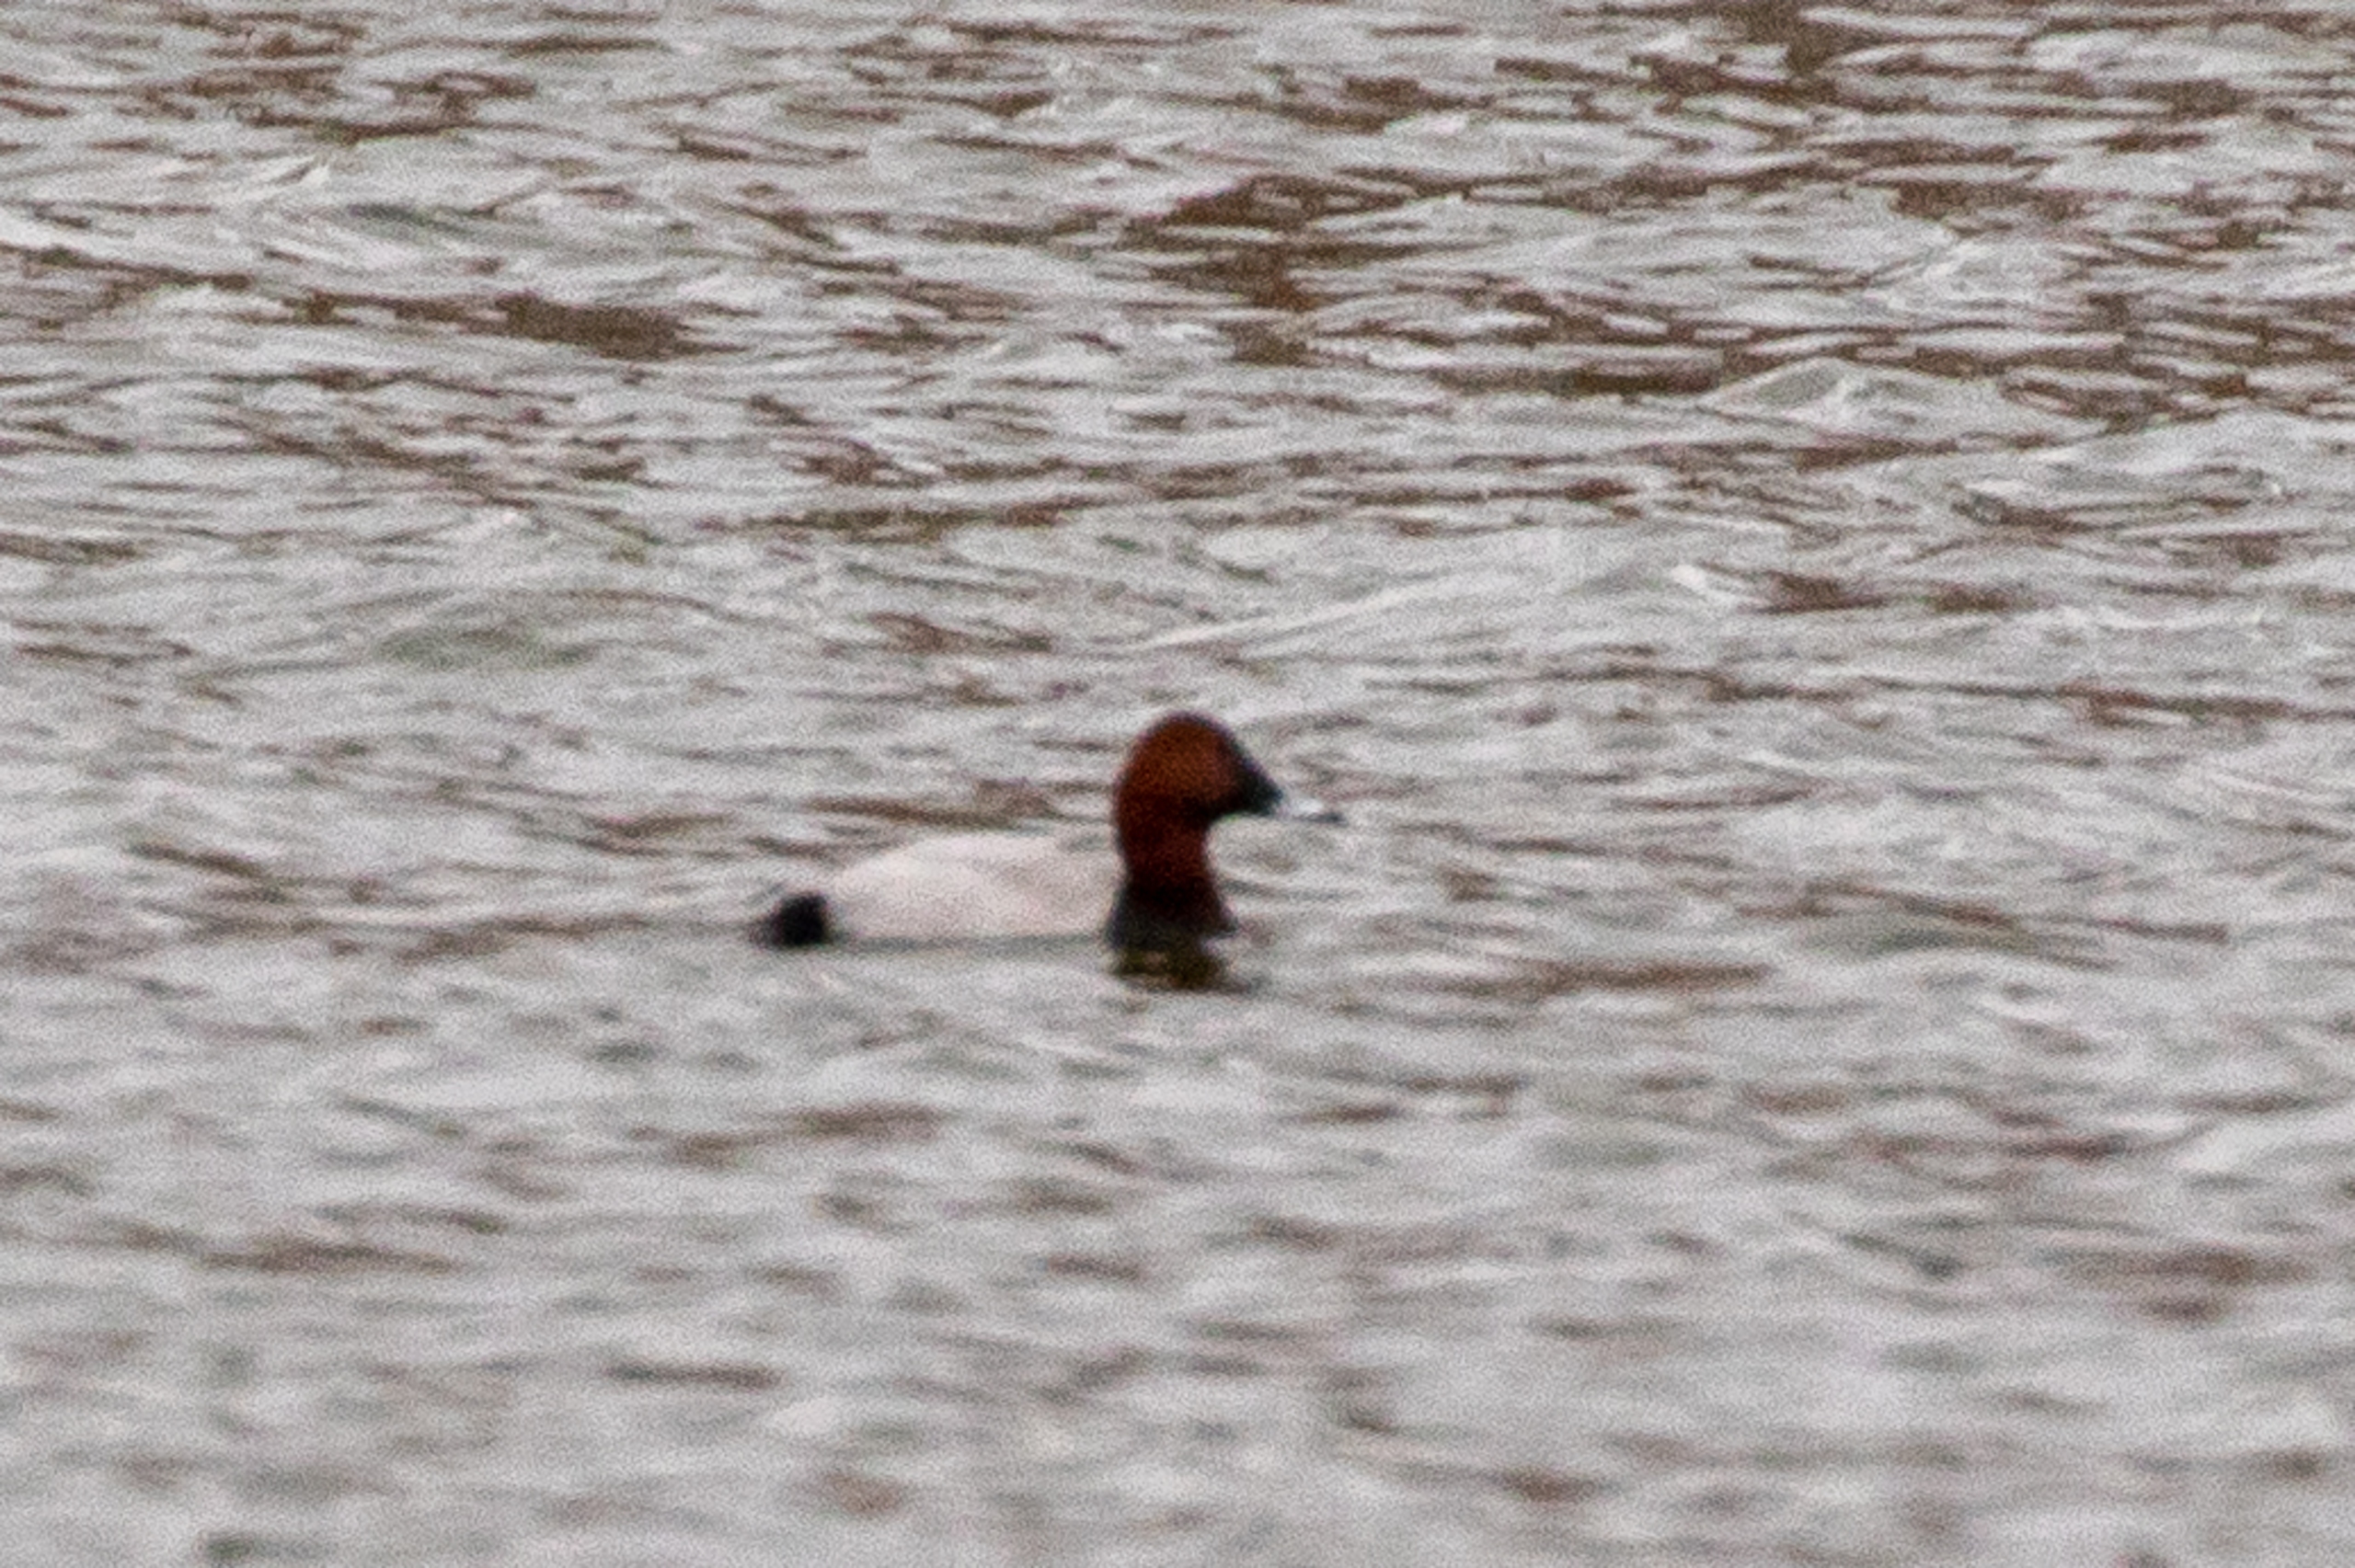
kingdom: Animalia
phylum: Chordata
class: Aves
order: Anseriformes
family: Anatidae
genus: Aythya
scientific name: Aythya ferina
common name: Taffeland
